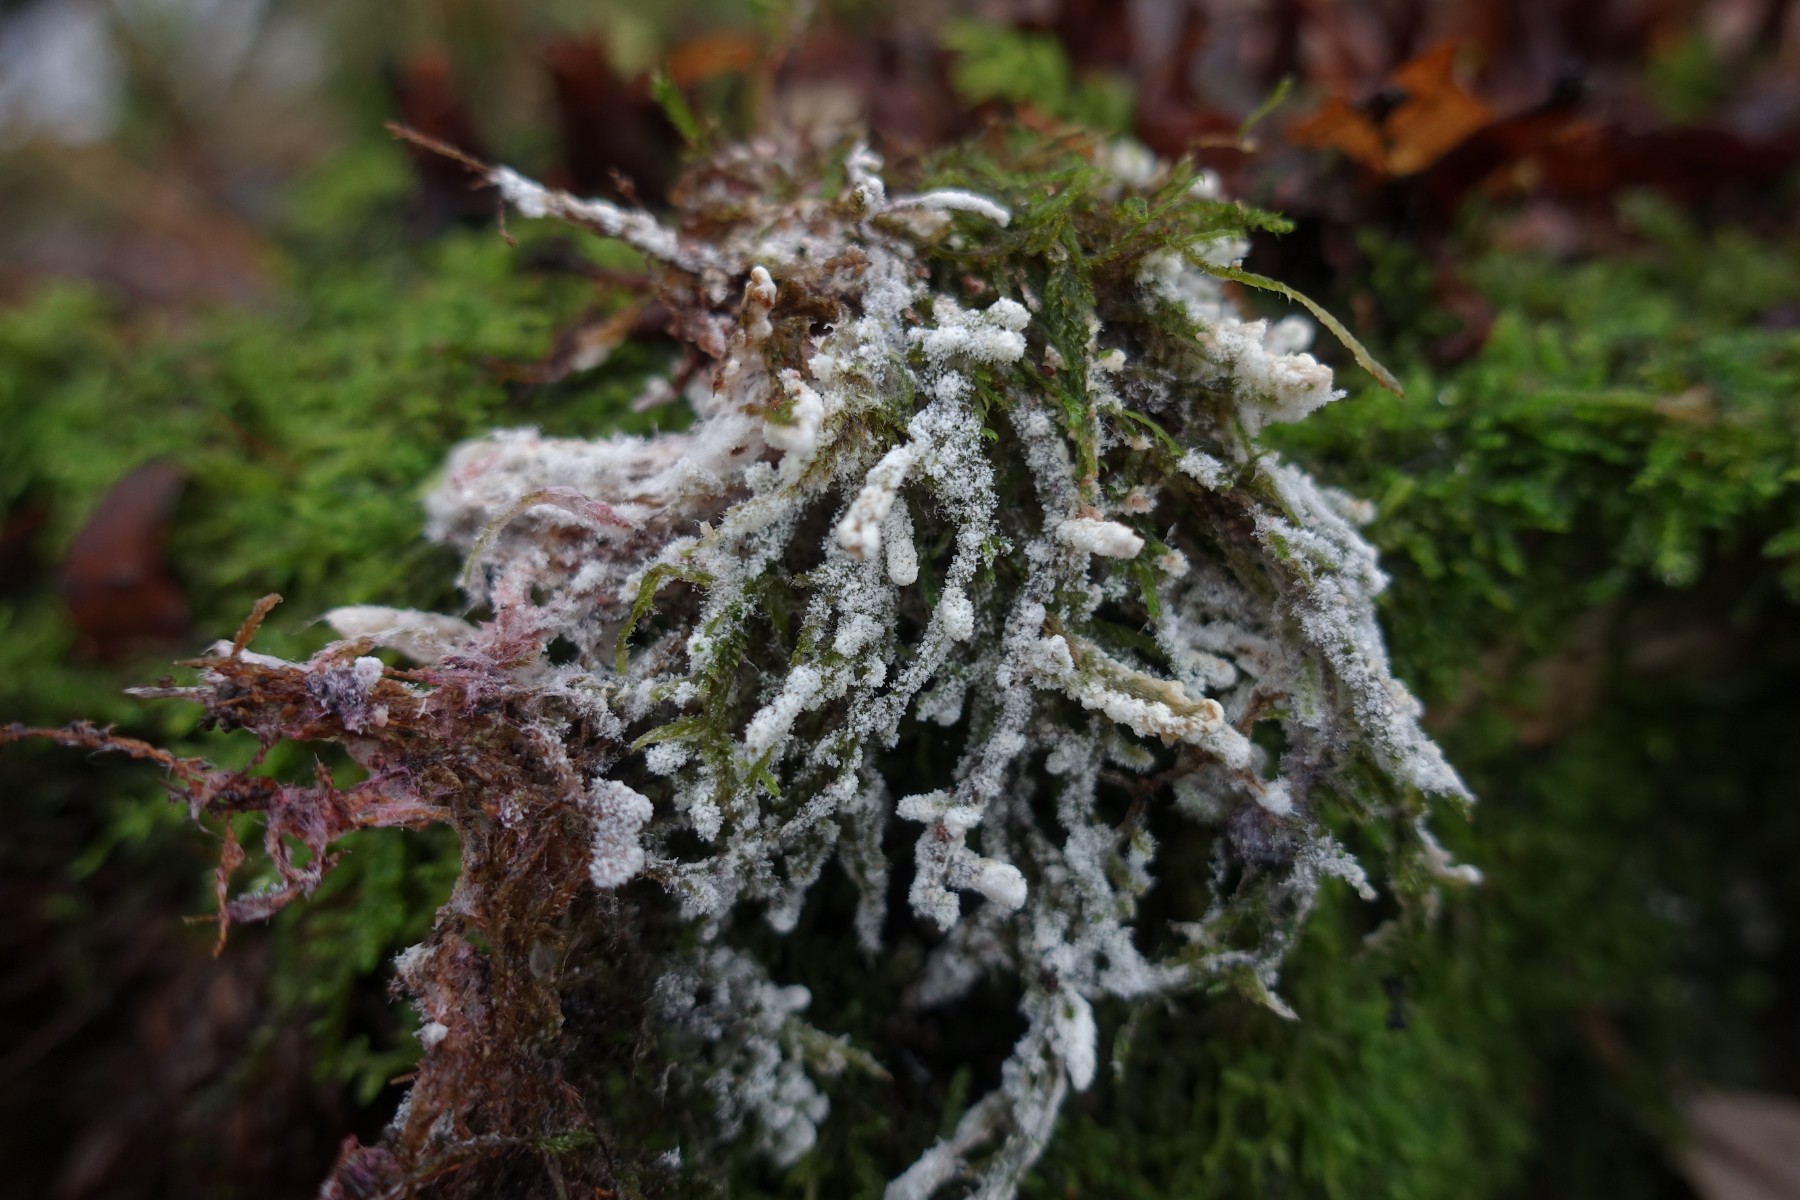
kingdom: Fungi
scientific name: Fungi
